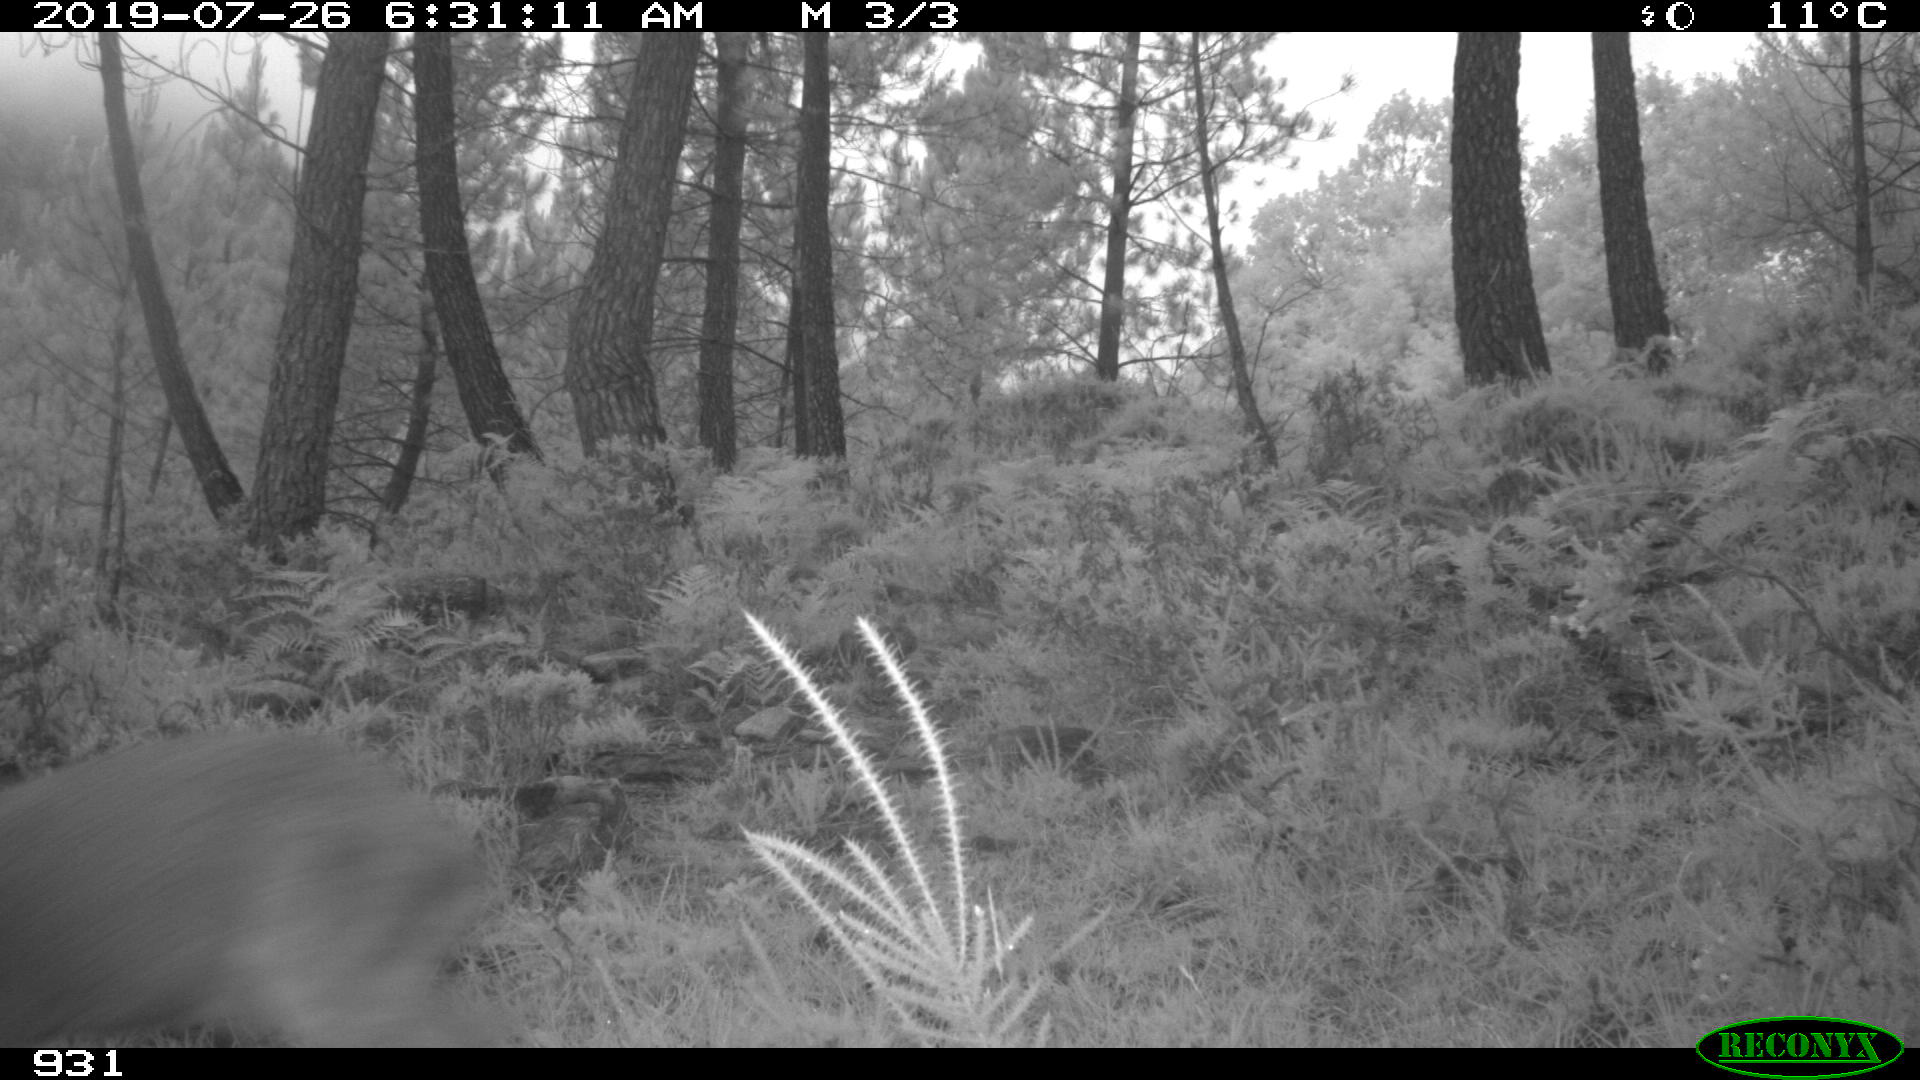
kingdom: Animalia
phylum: Chordata
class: Mammalia
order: Artiodactyla
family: Cervidae
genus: Capreolus
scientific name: Capreolus capreolus
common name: Western roe deer
